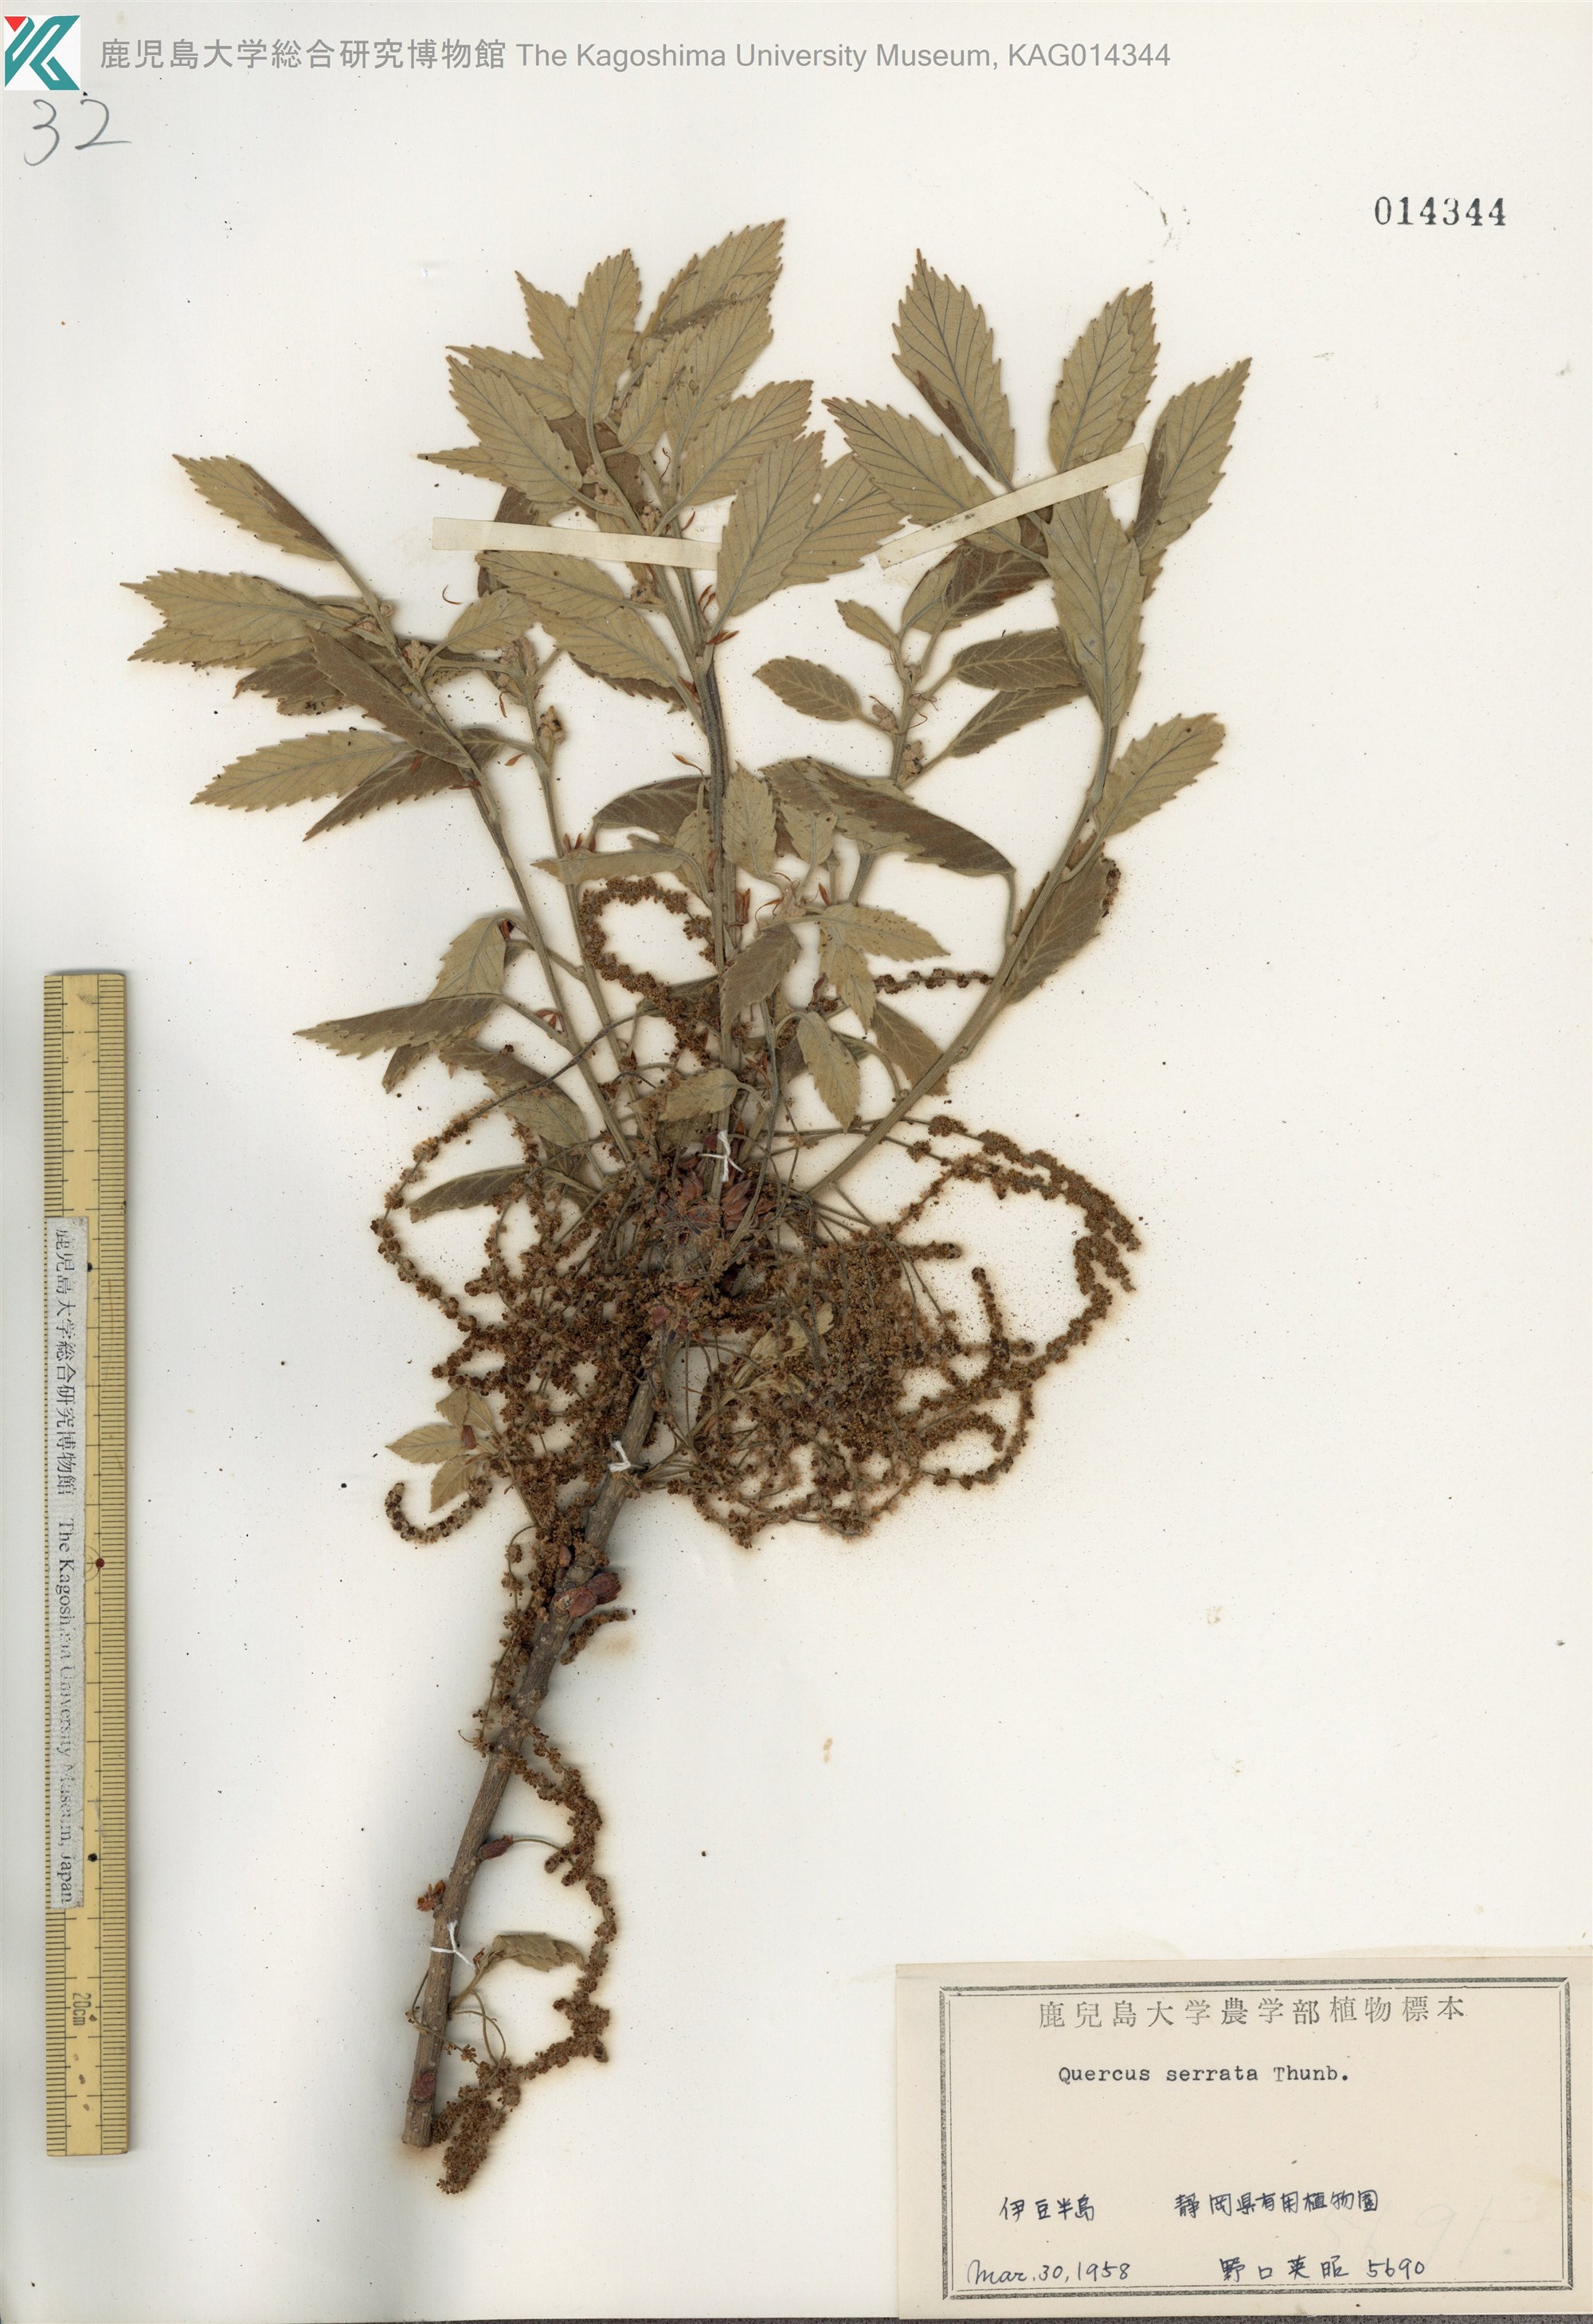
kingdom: Plantae
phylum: Tracheophyta
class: Magnoliopsida
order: Fagales
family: Fagaceae
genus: Quercus
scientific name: Quercus serrata
